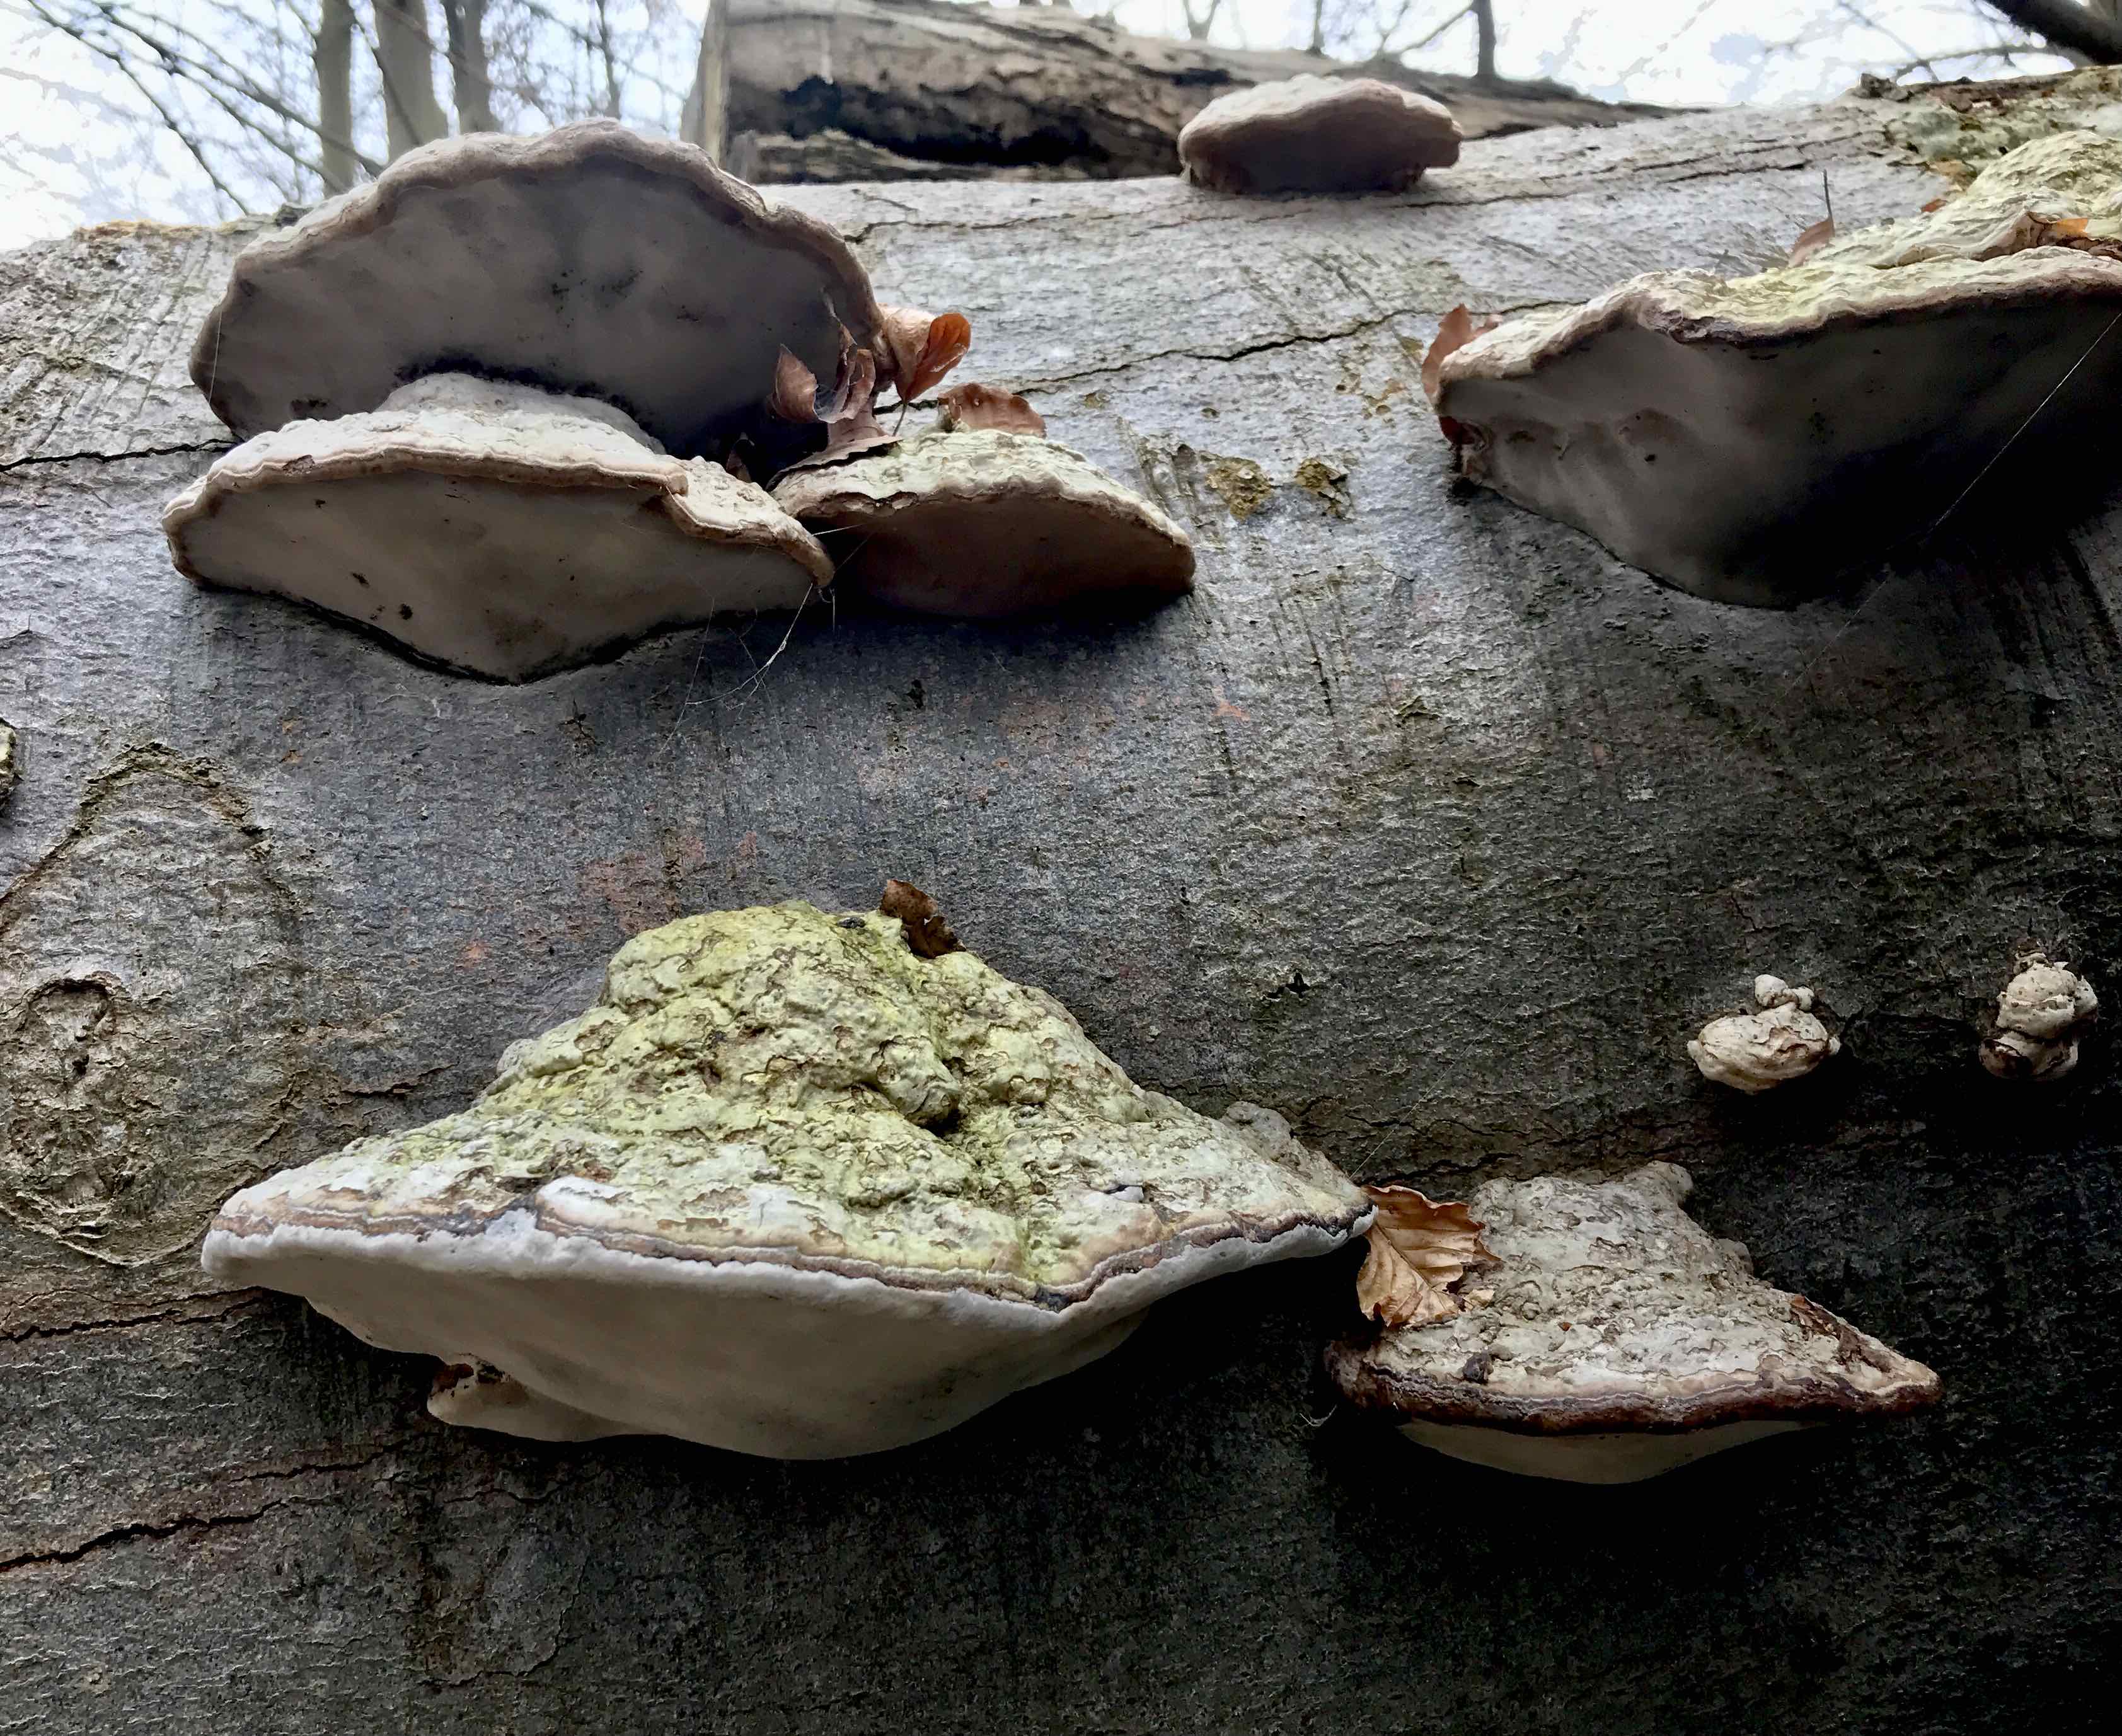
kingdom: Fungi
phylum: Basidiomycota
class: Agaricomycetes
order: Polyporales
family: Polyporaceae
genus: Fomes
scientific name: Fomes fomentarius
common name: tøndersvamp
